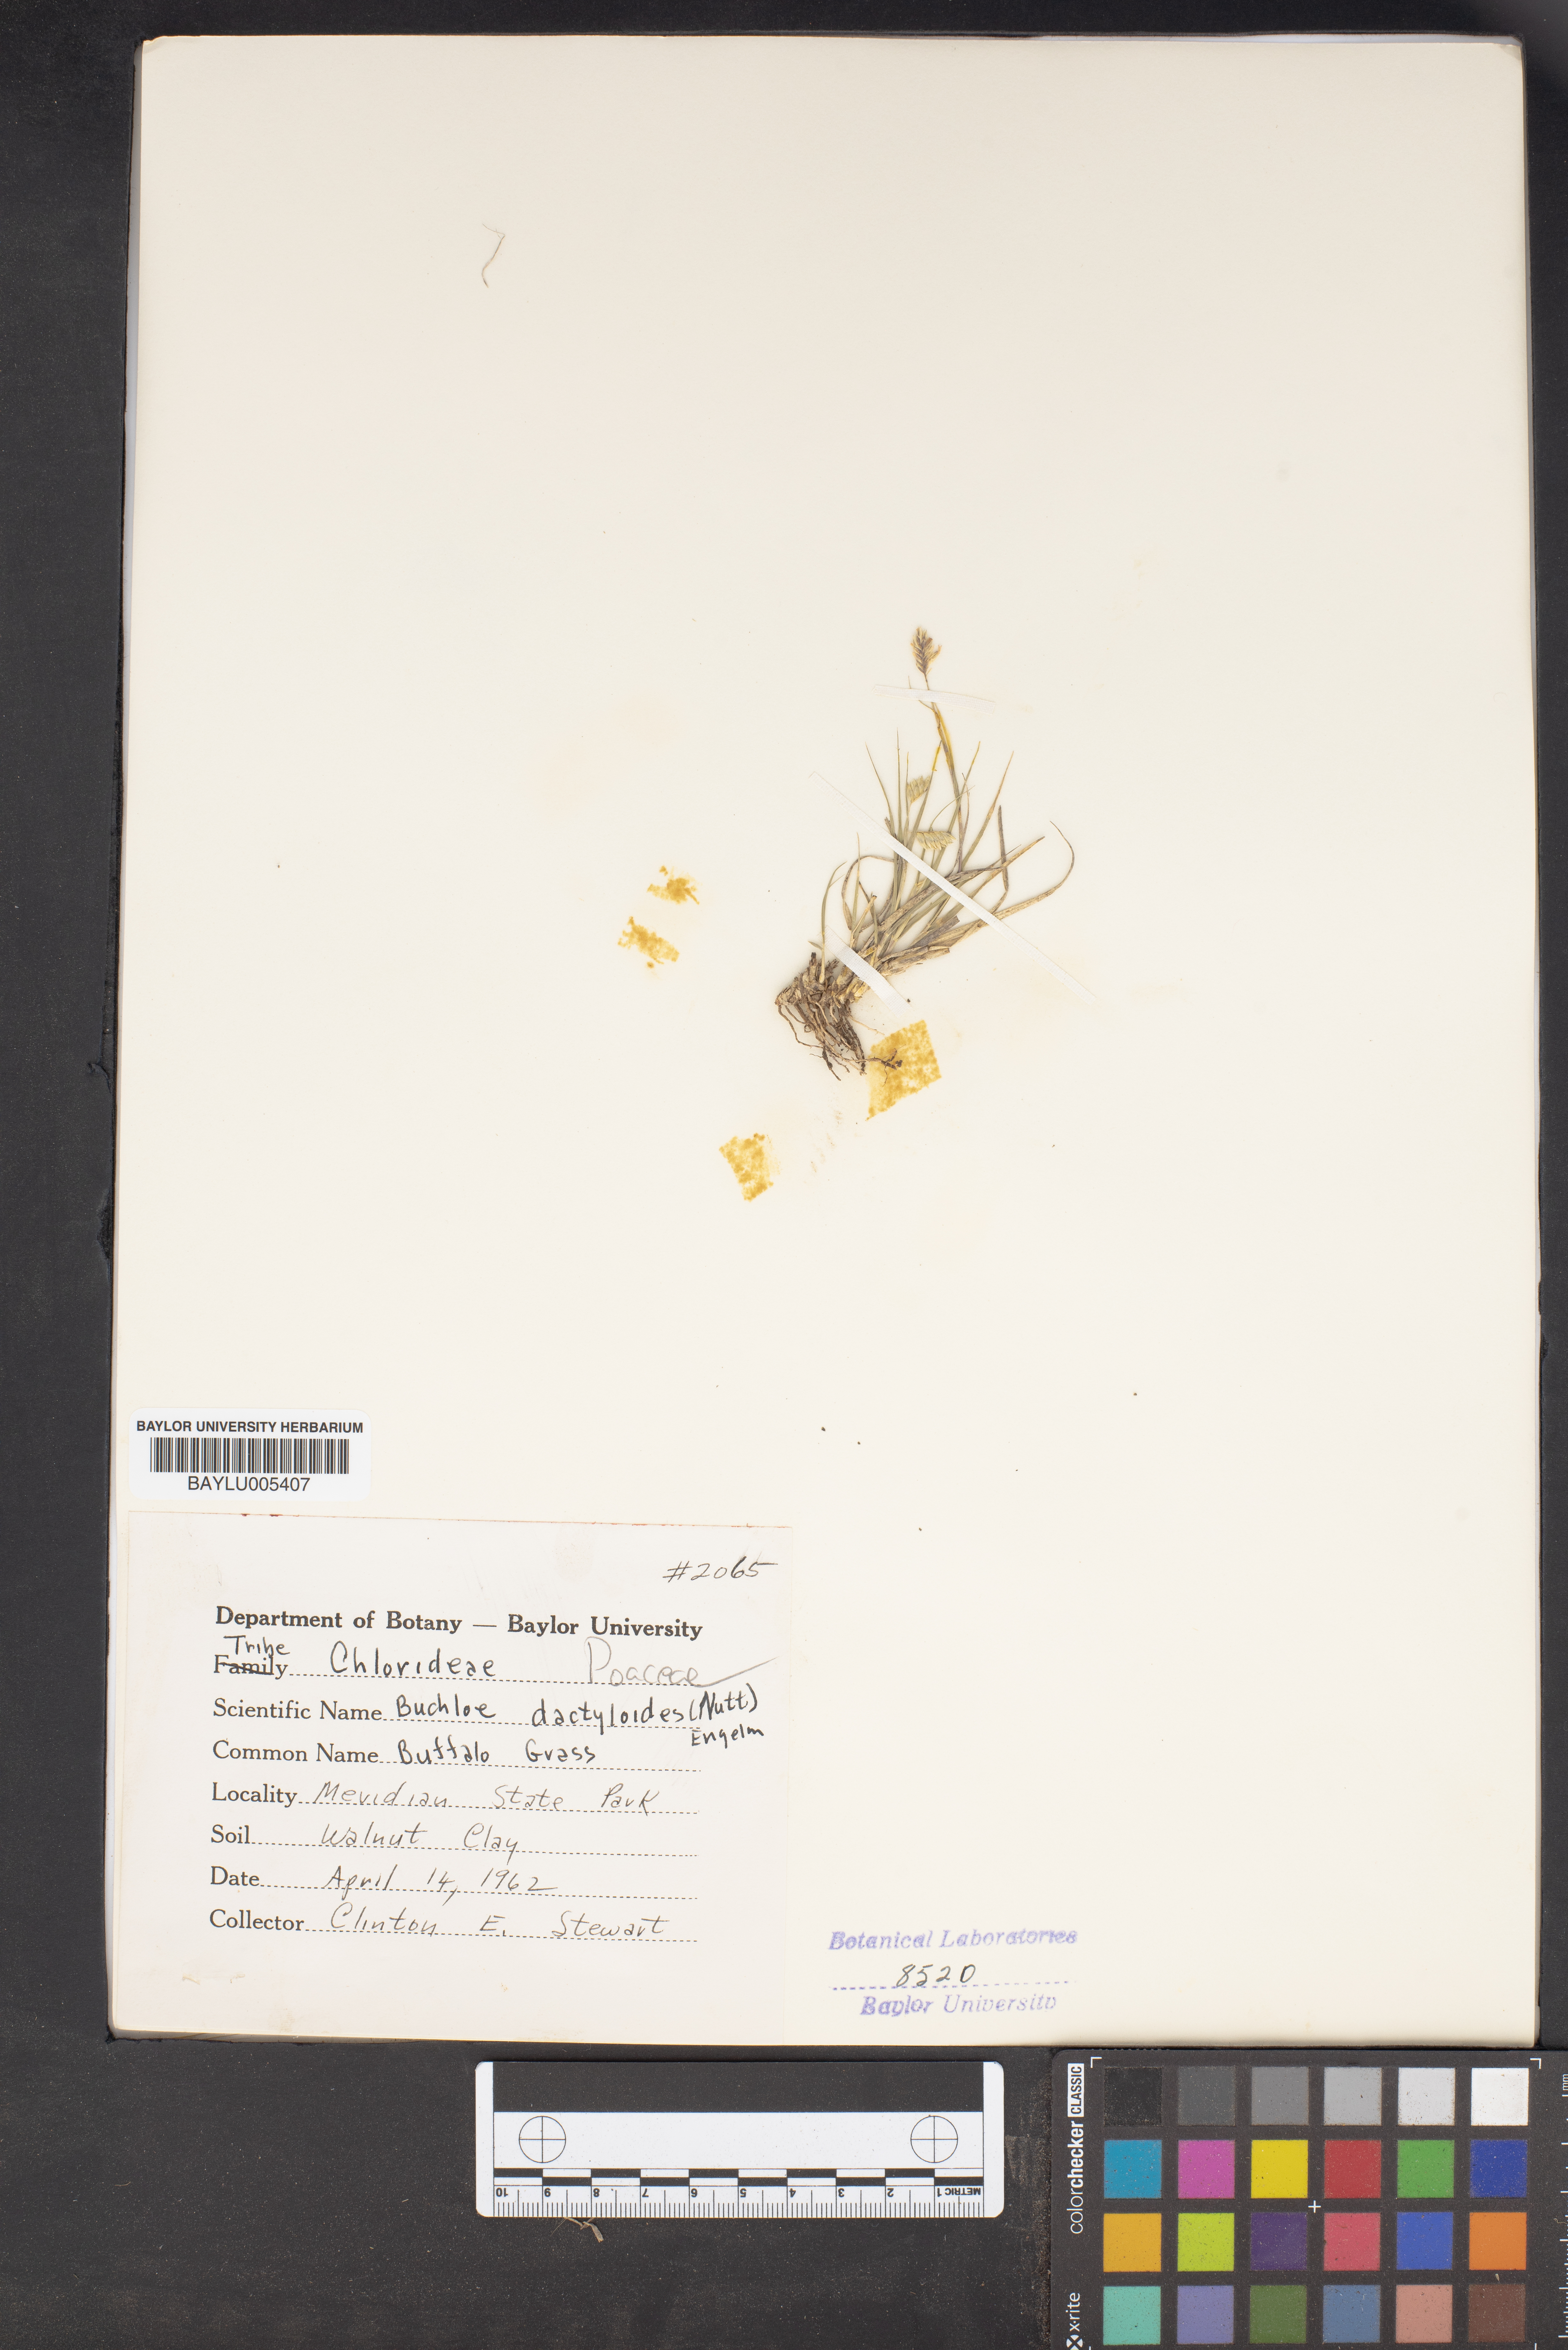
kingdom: Plantae
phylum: Tracheophyta
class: Liliopsida
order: Poales
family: Poaceae
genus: Bouteloua
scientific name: Bouteloua dactyloides
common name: Buffalo grass
